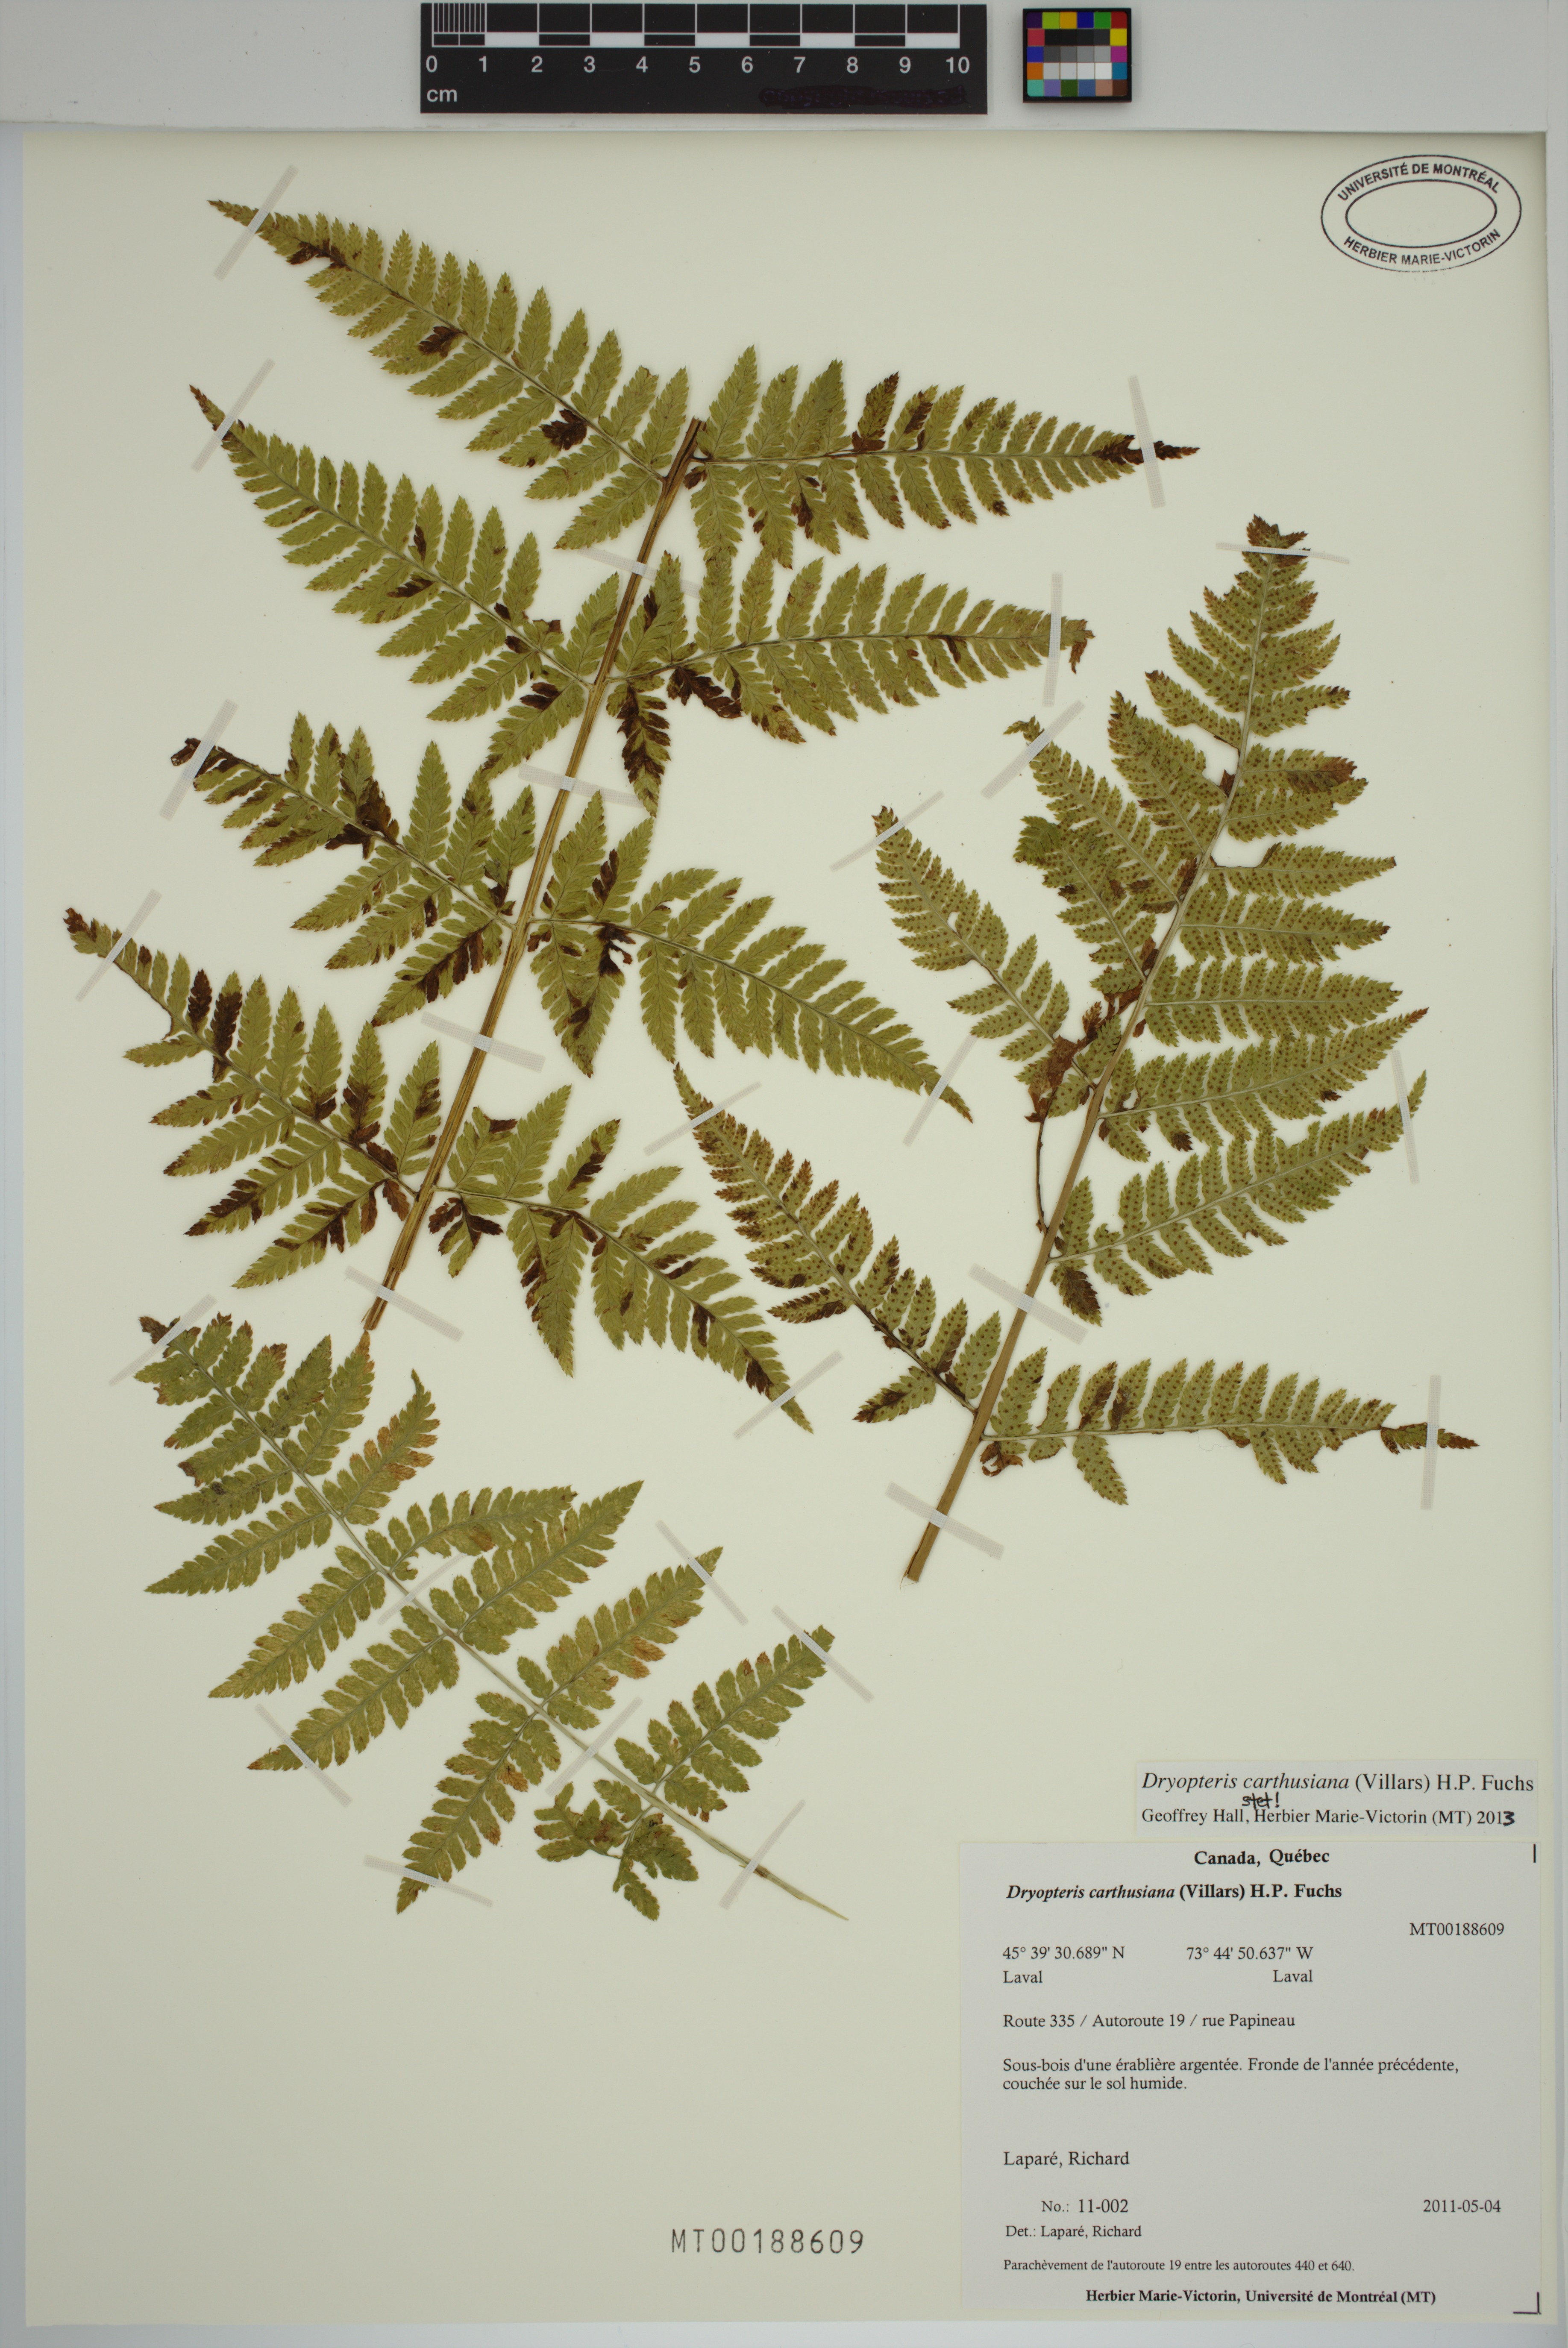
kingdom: Plantae
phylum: Tracheophyta
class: Polypodiopsida
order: Polypodiales
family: Dryopteridaceae
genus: Dryopteris
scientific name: Dryopteris carthusiana
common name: Narrow buckler-fern
